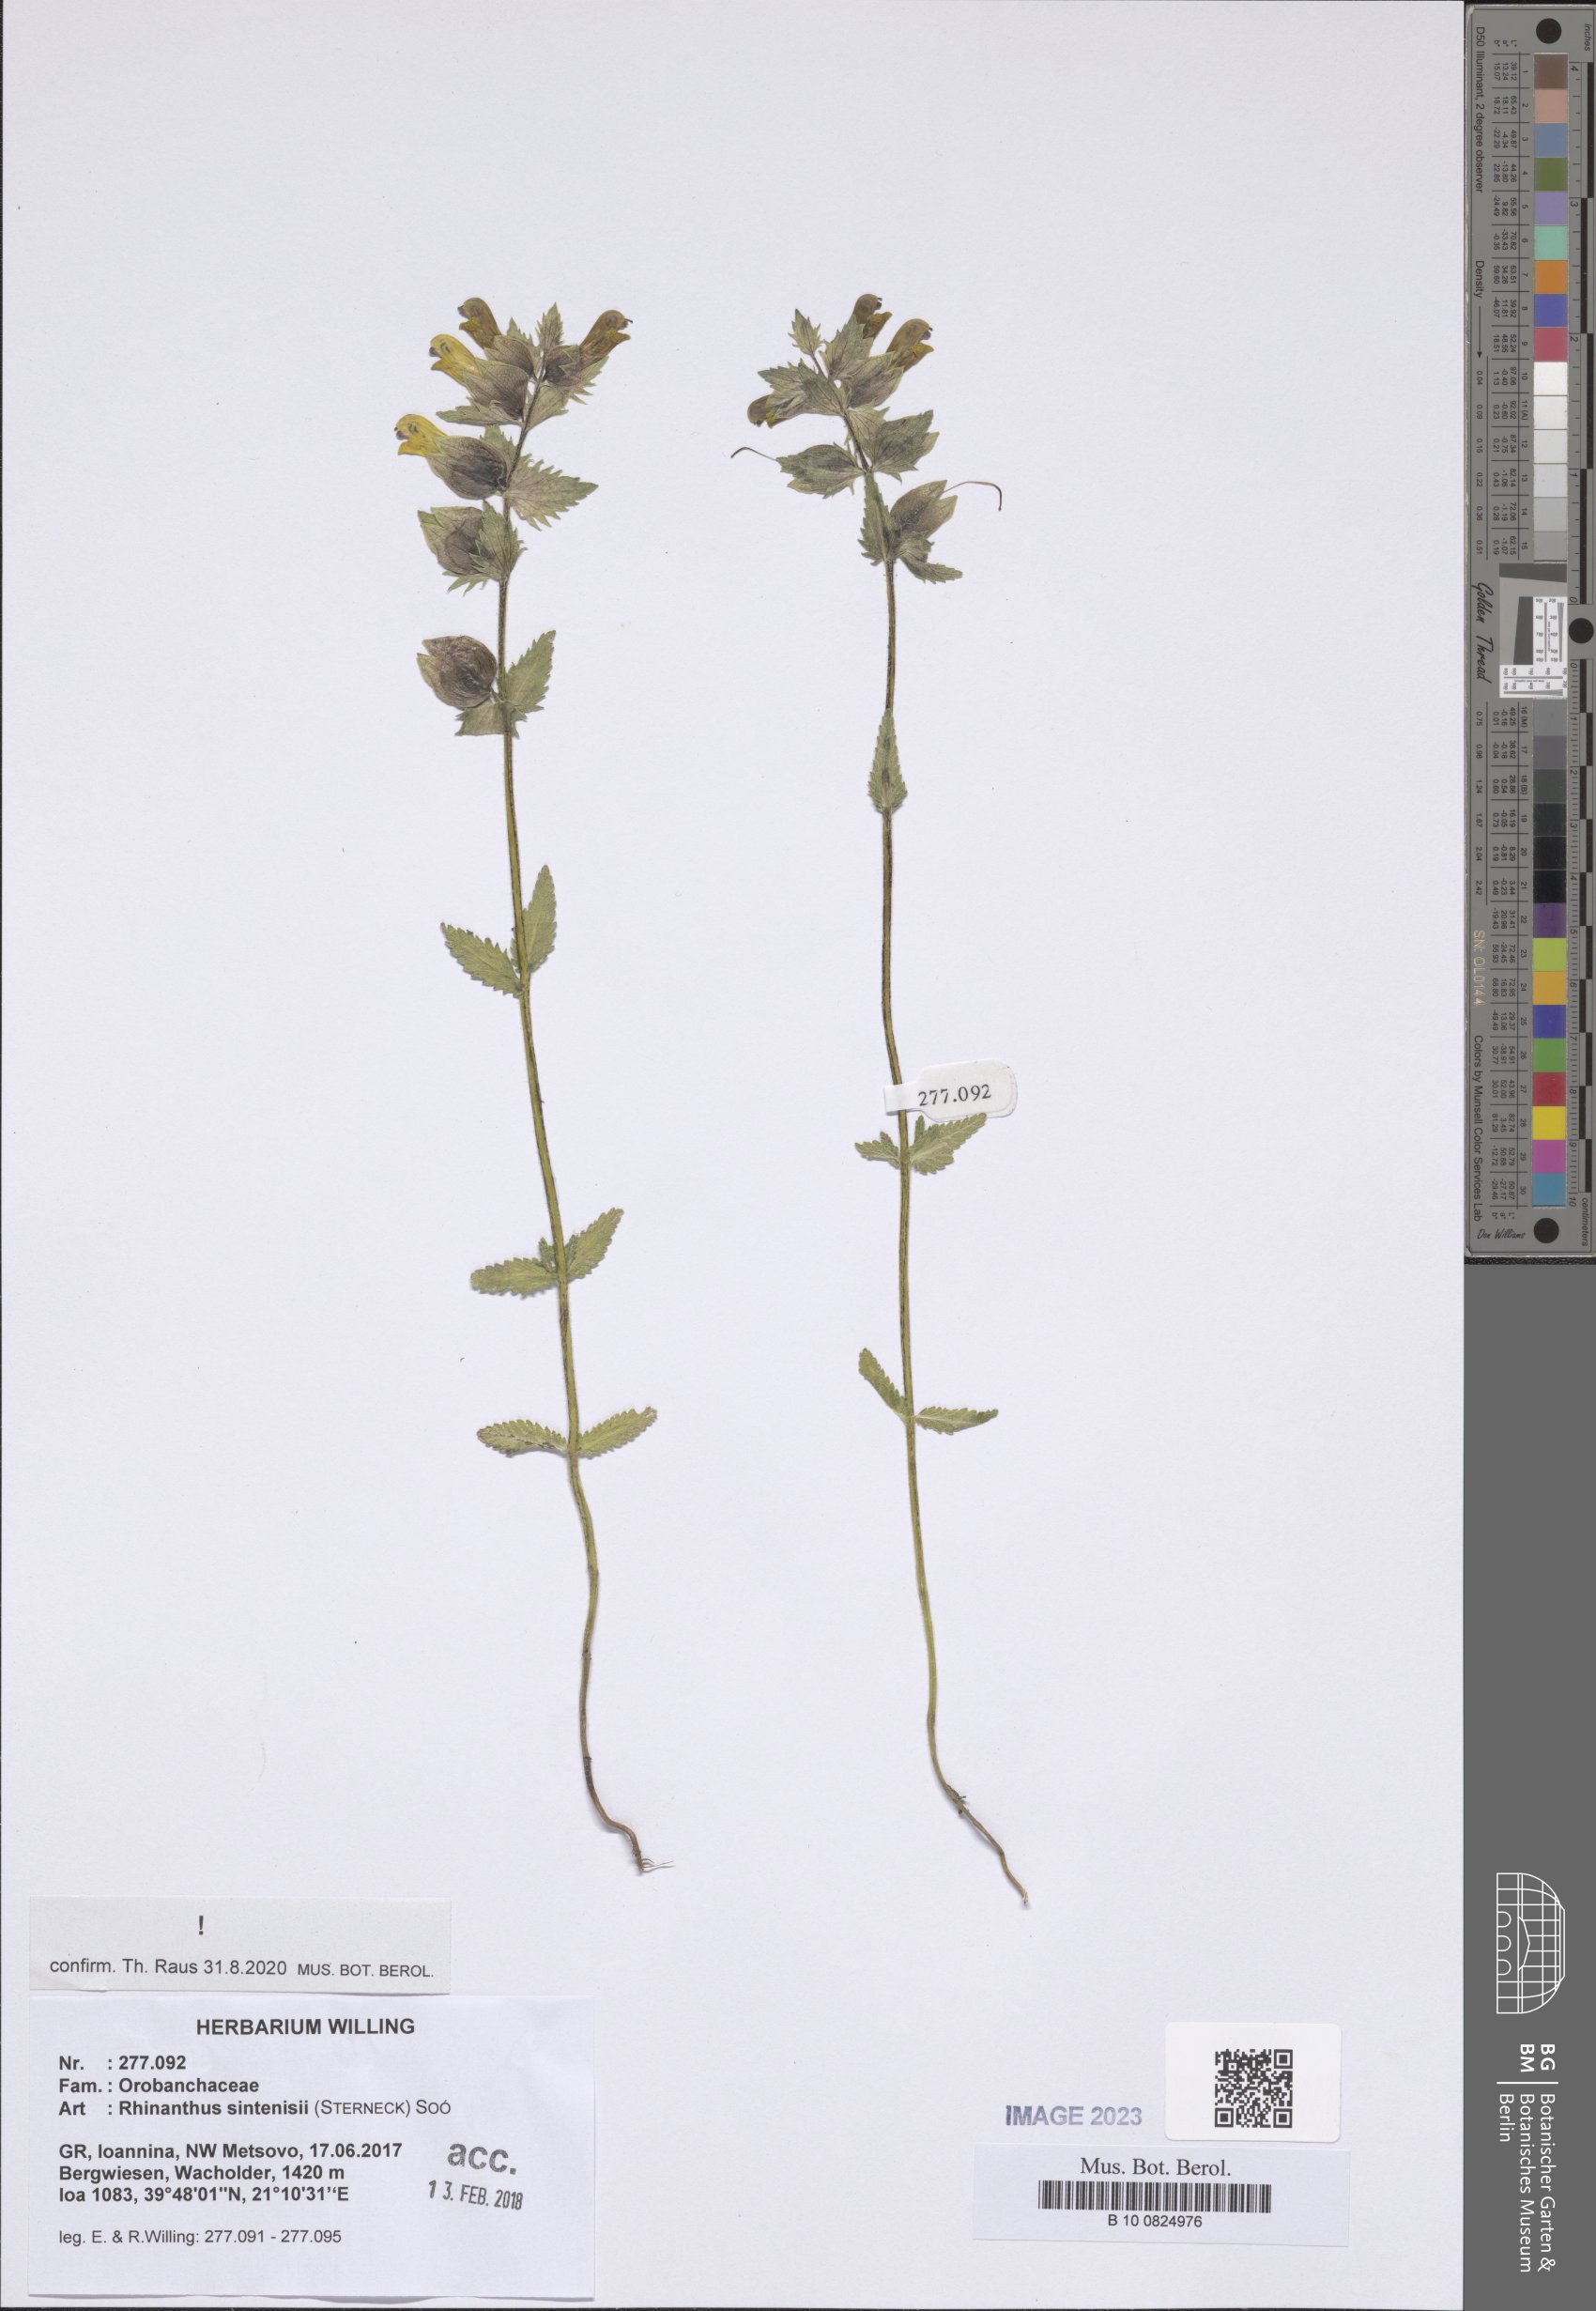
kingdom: Plantae
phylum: Tracheophyta
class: Magnoliopsida
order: Lamiales
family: Orobanchaceae
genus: Rhinanthus
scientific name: Rhinanthus sintenisii
